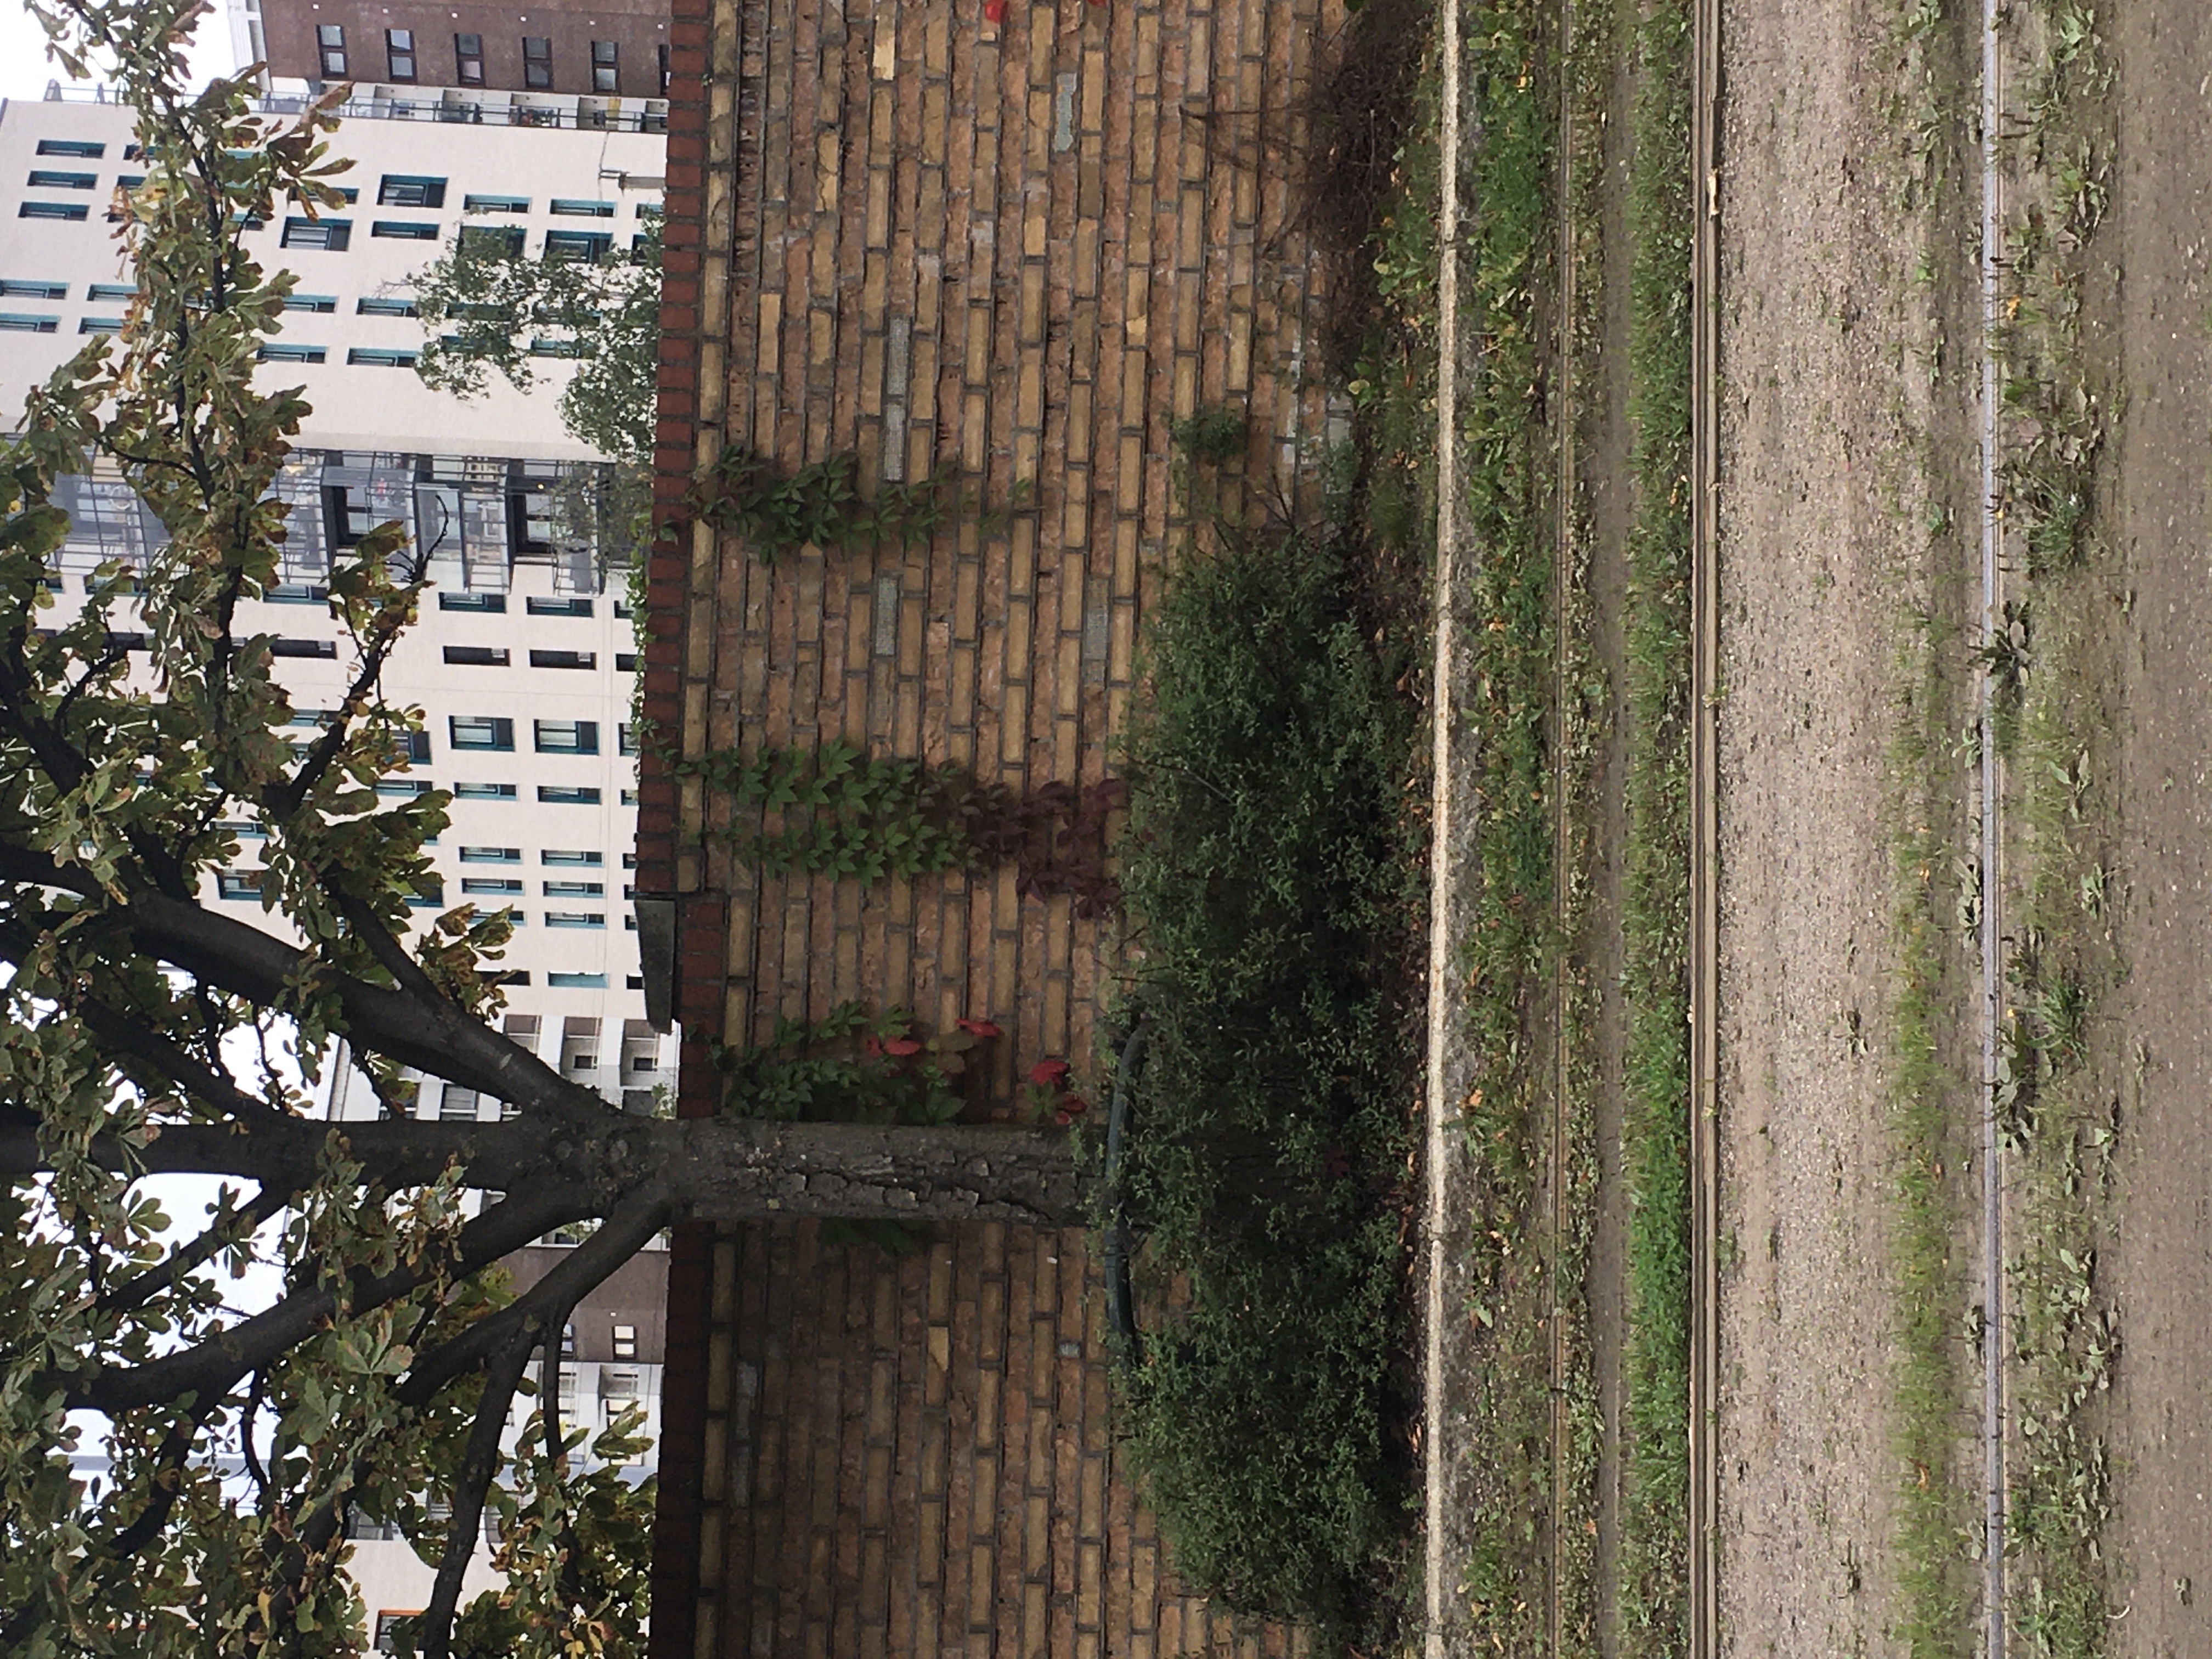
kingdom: Plantae
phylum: Tracheophyta
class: Magnoliopsida
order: Vitales
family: Vitaceae
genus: Parthenocissus
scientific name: Parthenocissus quinquefolia
